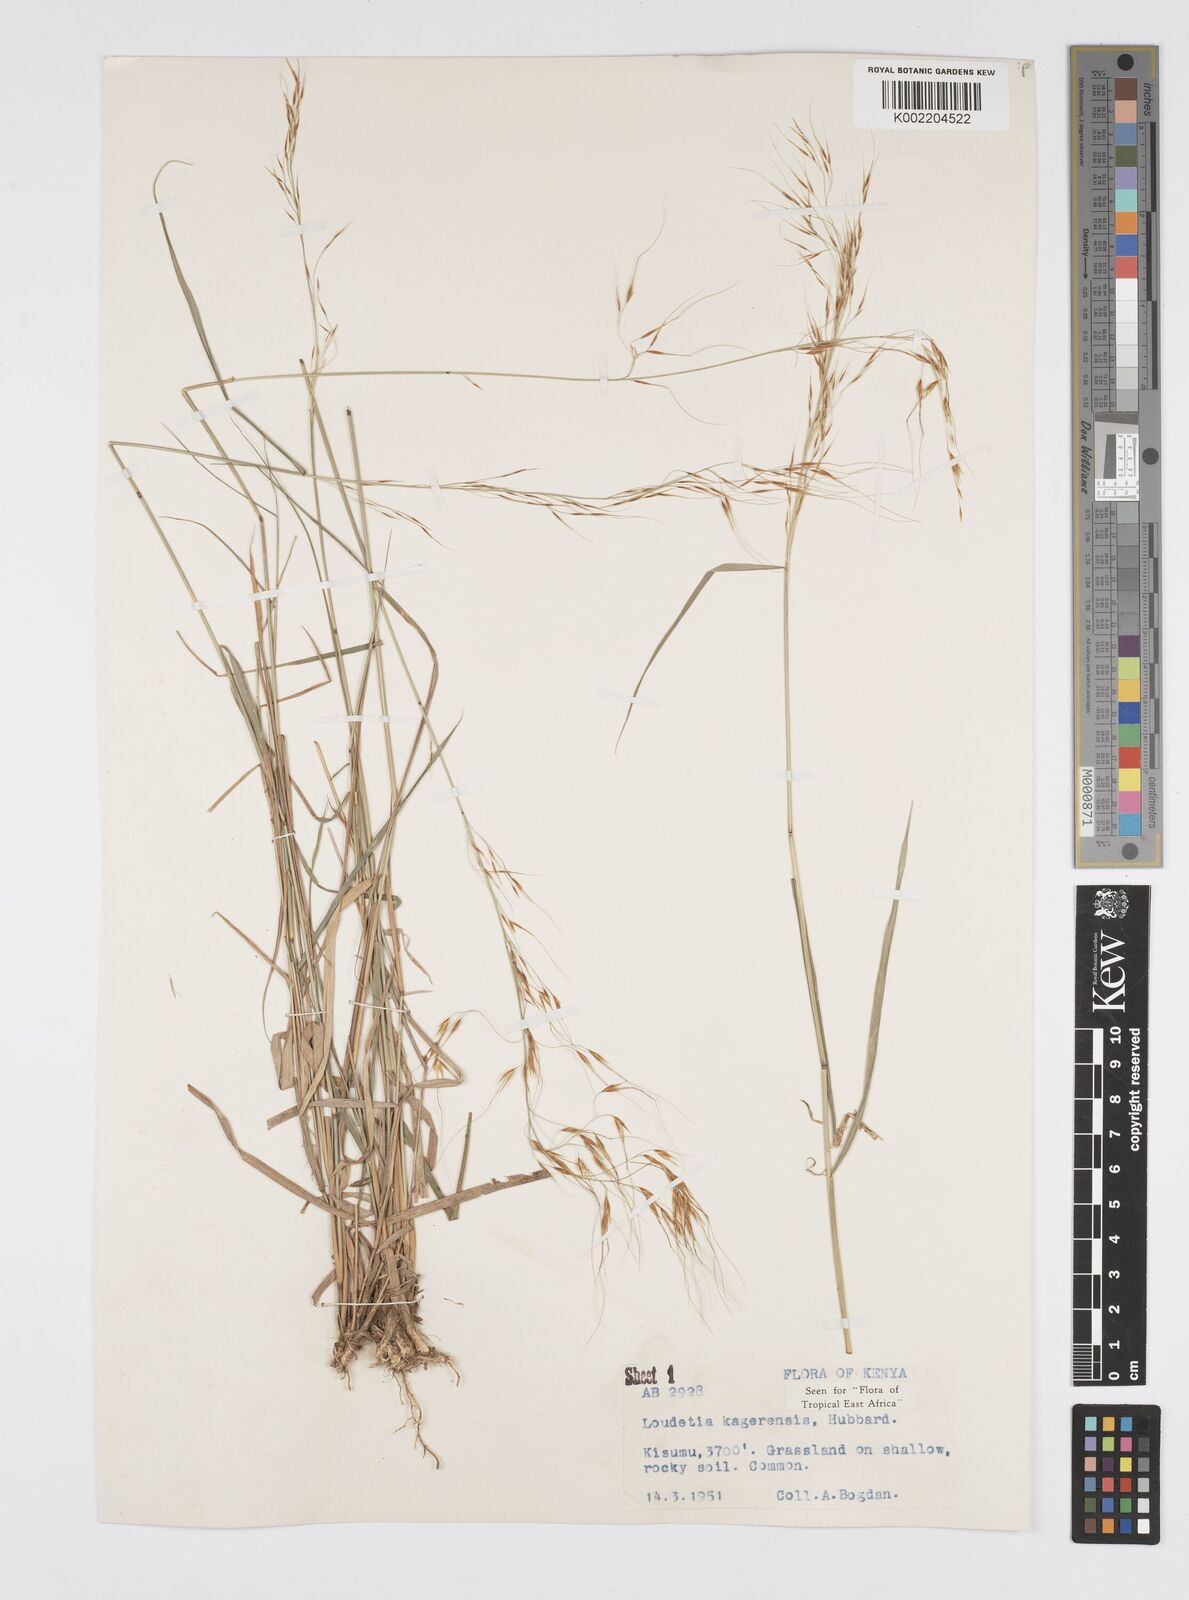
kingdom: Plantae
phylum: Tracheophyta
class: Liliopsida
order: Poales
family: Poaceae
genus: Loudetia
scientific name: Loudetia kagerensis
